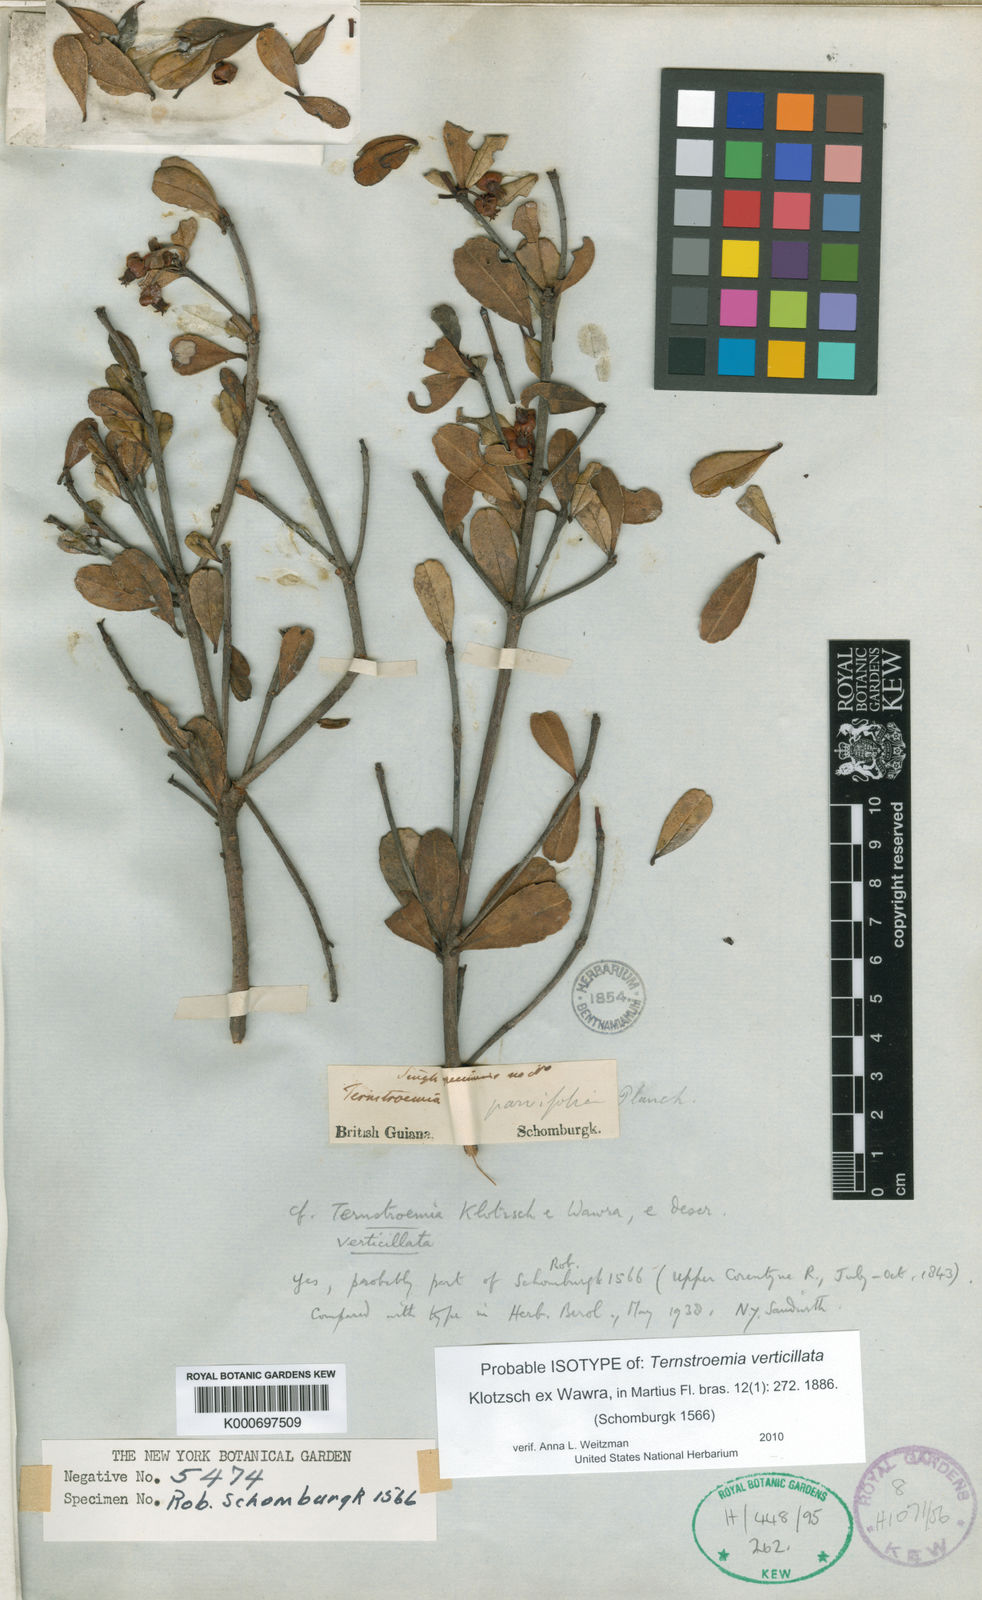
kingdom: Plantae
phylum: Tracheophyta
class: Magnoliopsida
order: Ericales
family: Pentaphylacaceae
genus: Ternstroemia
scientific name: Ternstroemia
